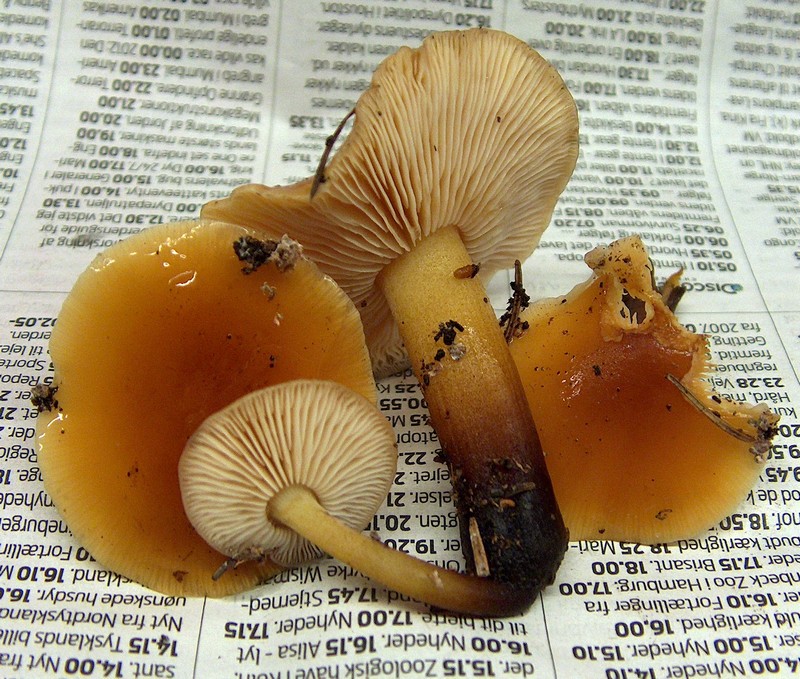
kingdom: Fungi
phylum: Basidiomycota
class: Agaricomycetes
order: Agaricales
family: Physalacriaceae
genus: Flammulina
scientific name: Flammulina velutipes
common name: gul fløjlsfod
